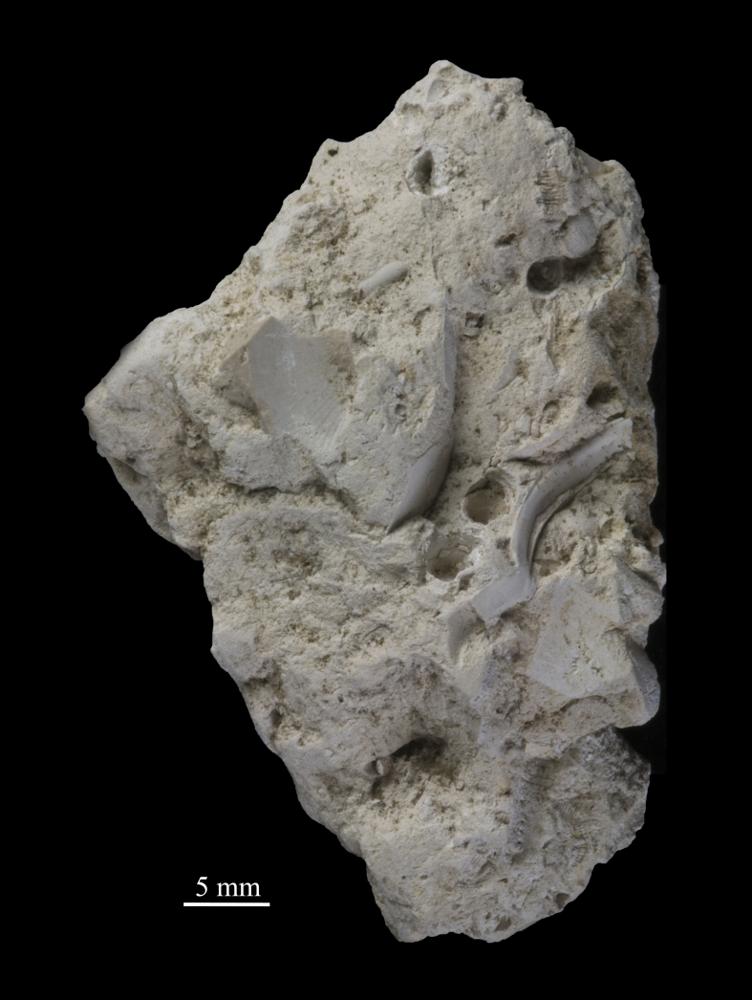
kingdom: Animalia
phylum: Arthropoda
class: Trilobita
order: Asaphida
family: Asaphidae
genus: Isotelus
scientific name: Isotelus
